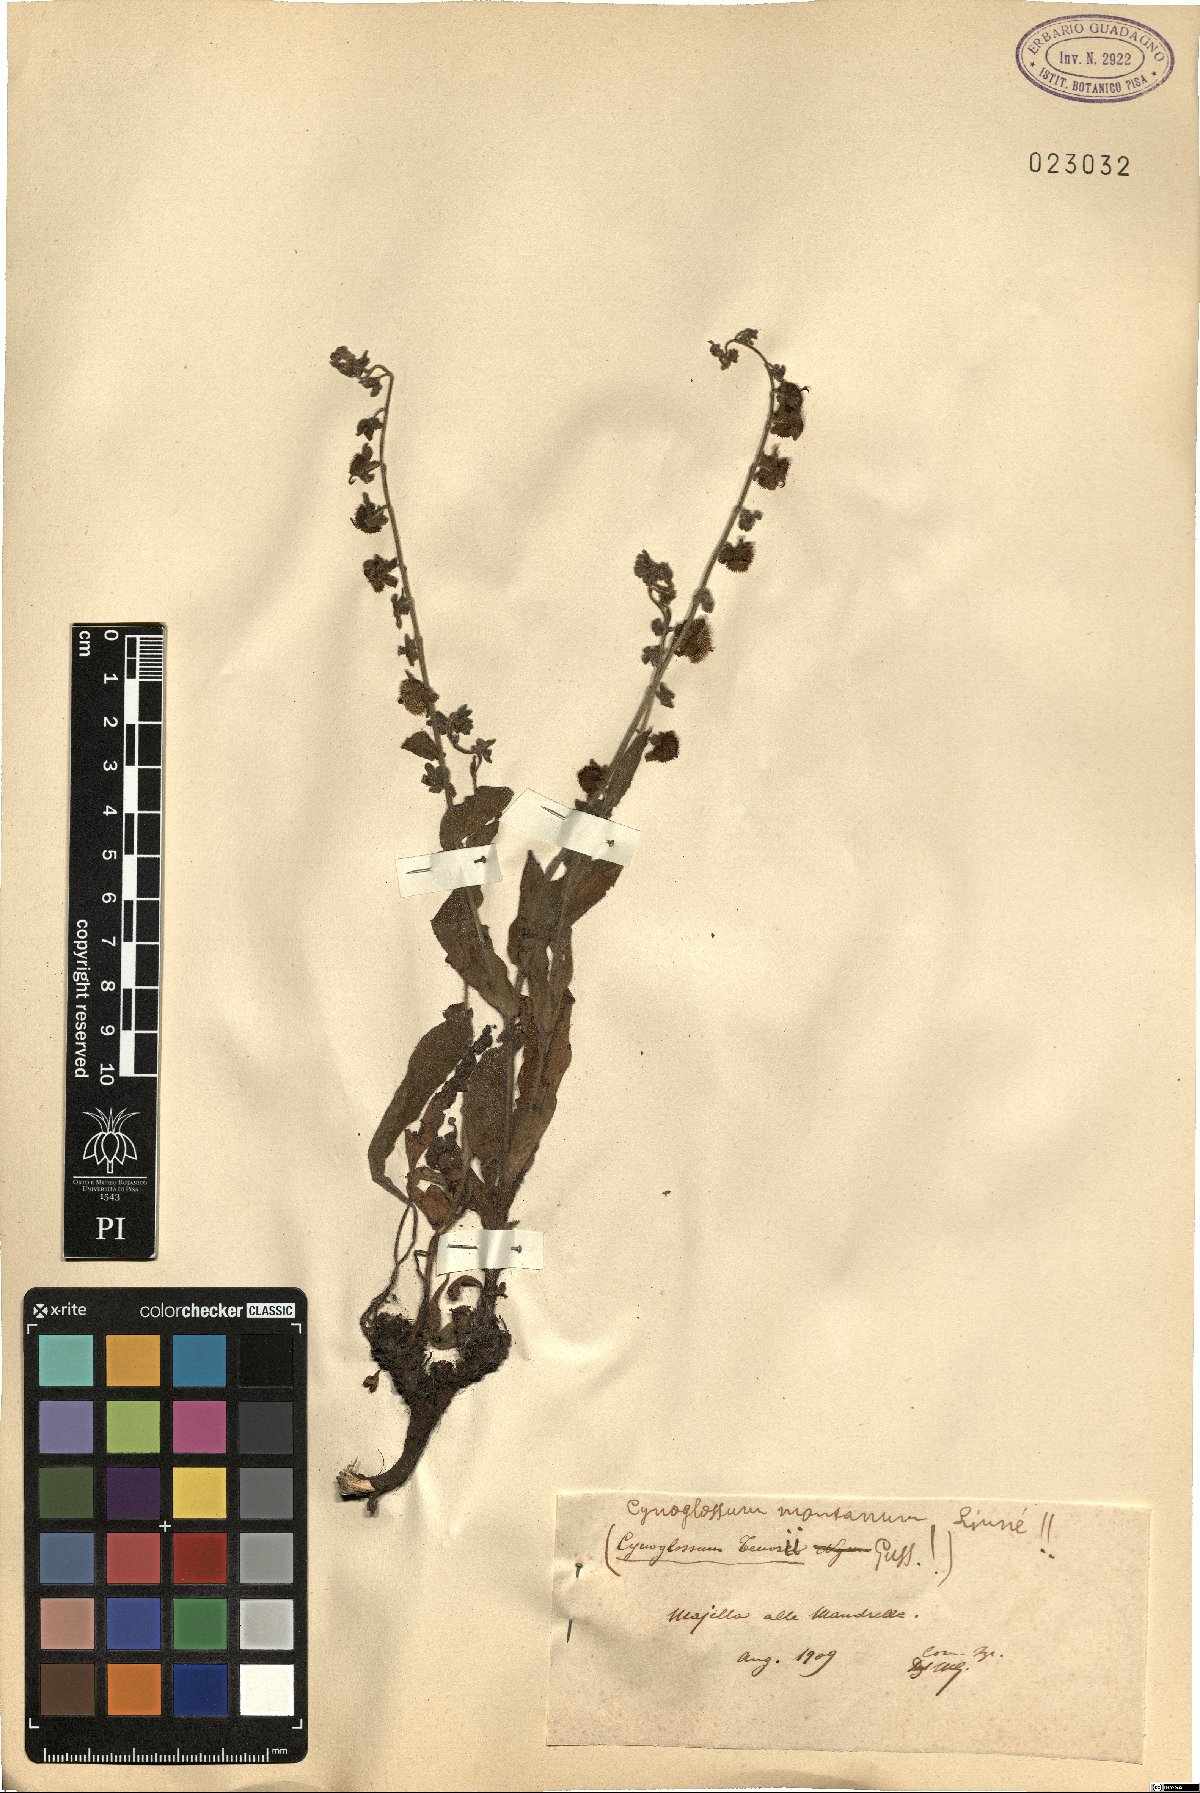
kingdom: Plantae
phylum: Tracheophyta
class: Magnoliopsida
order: Boraginales
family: Boraginaceae
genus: Cynoglossum
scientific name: Cynoglossum montanum
